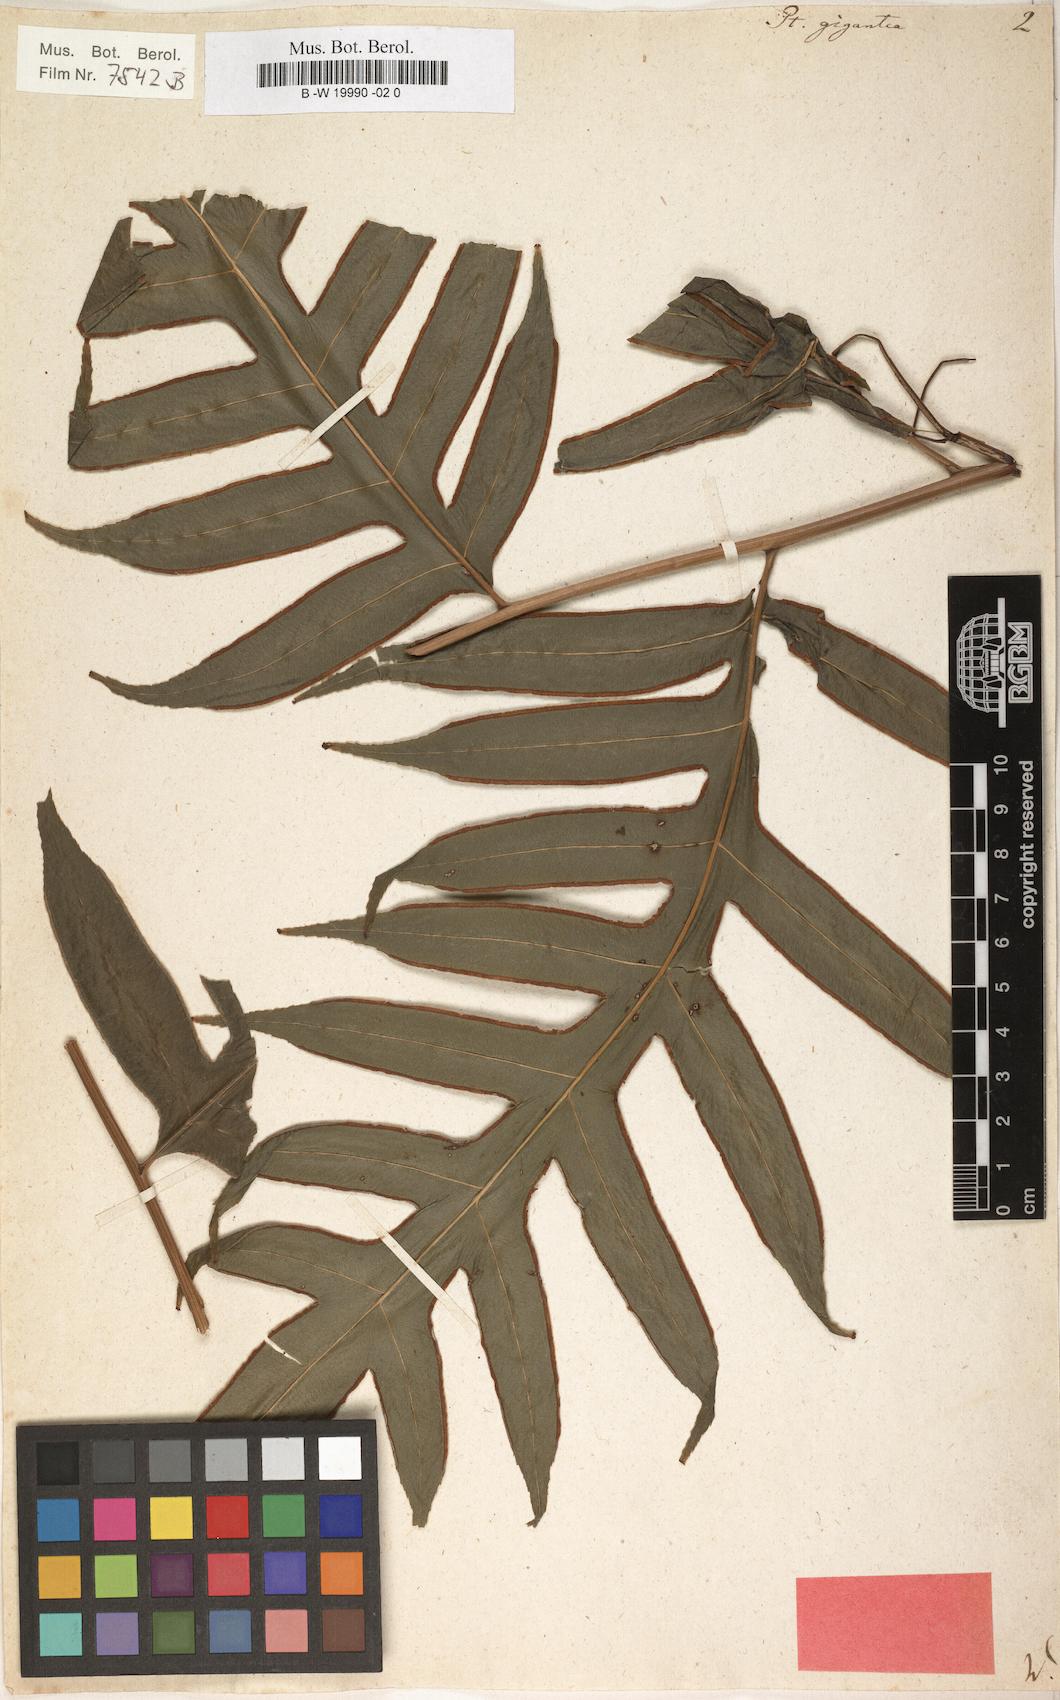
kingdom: Plantae
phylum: Tracheophyta
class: Polypodiopsida
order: Polypodiales
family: Pteridaceae
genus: Pteris
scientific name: Pteris gigantea
